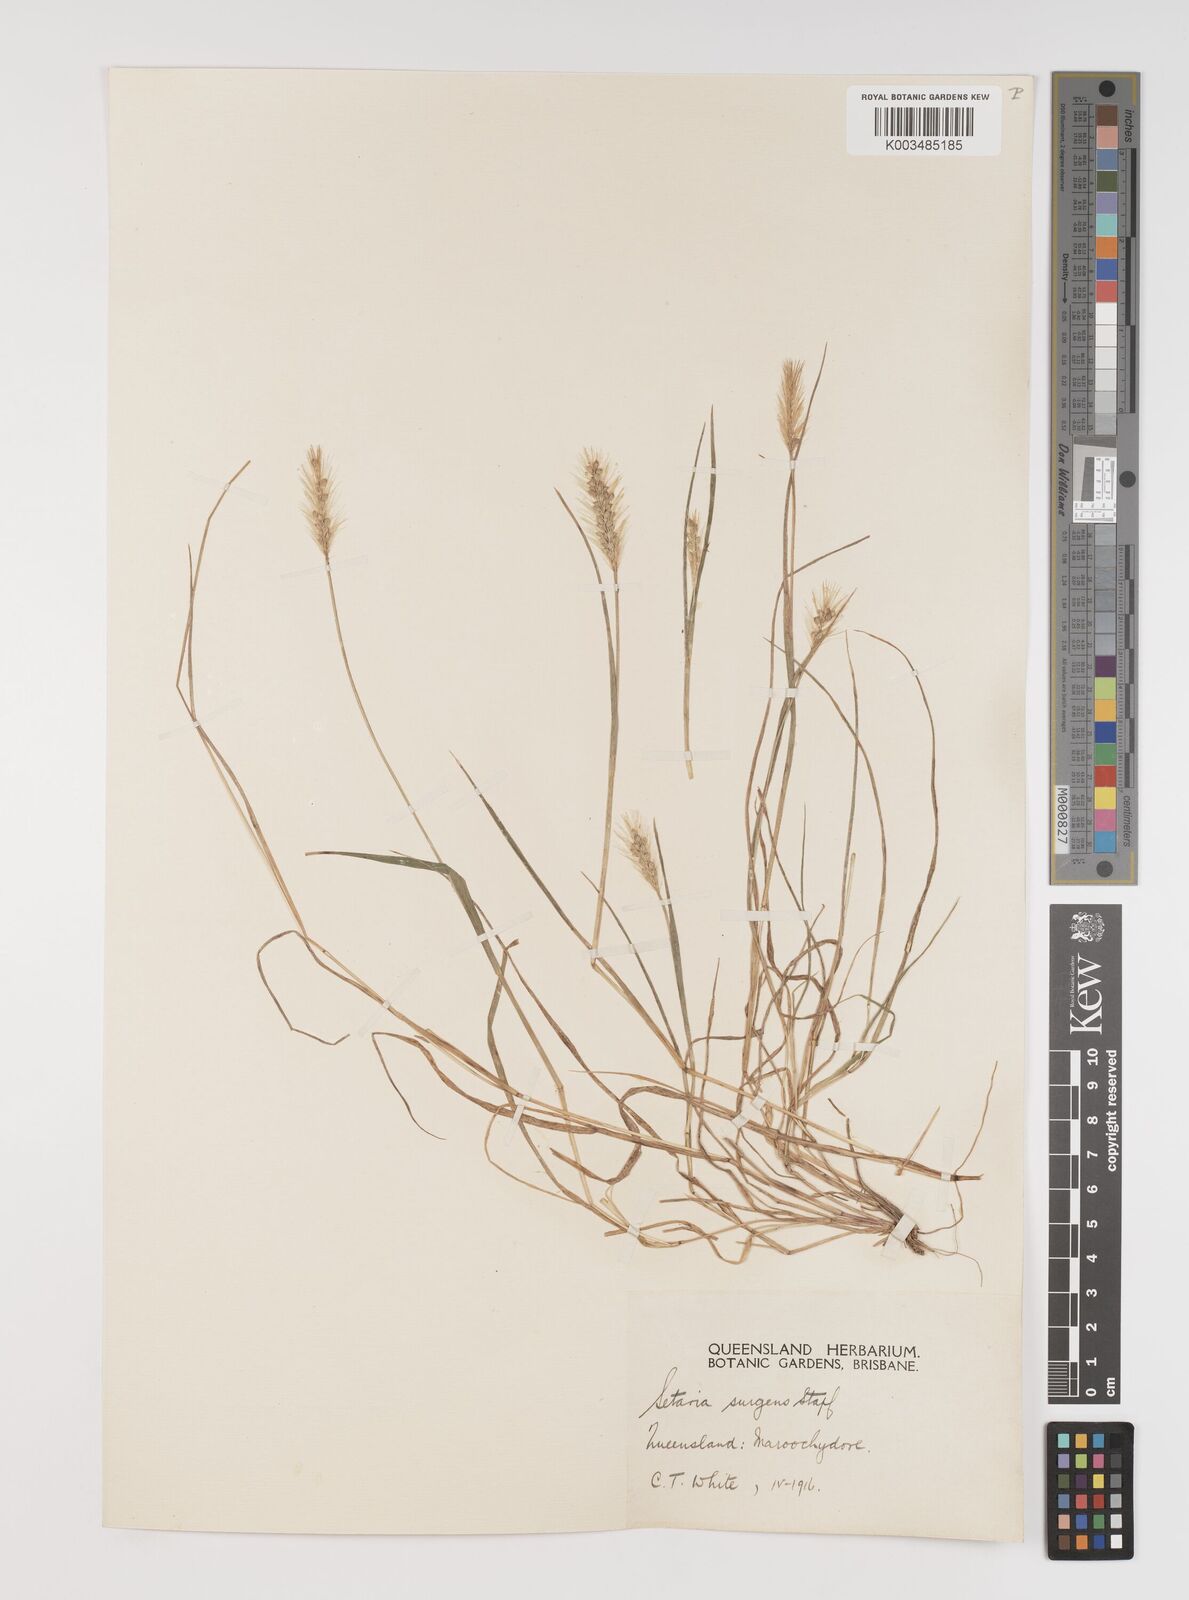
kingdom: Plantae
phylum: Tracheophyta
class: Liliopsida
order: Poales
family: Poaceae
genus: Setaria
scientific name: Setaria apiculata
